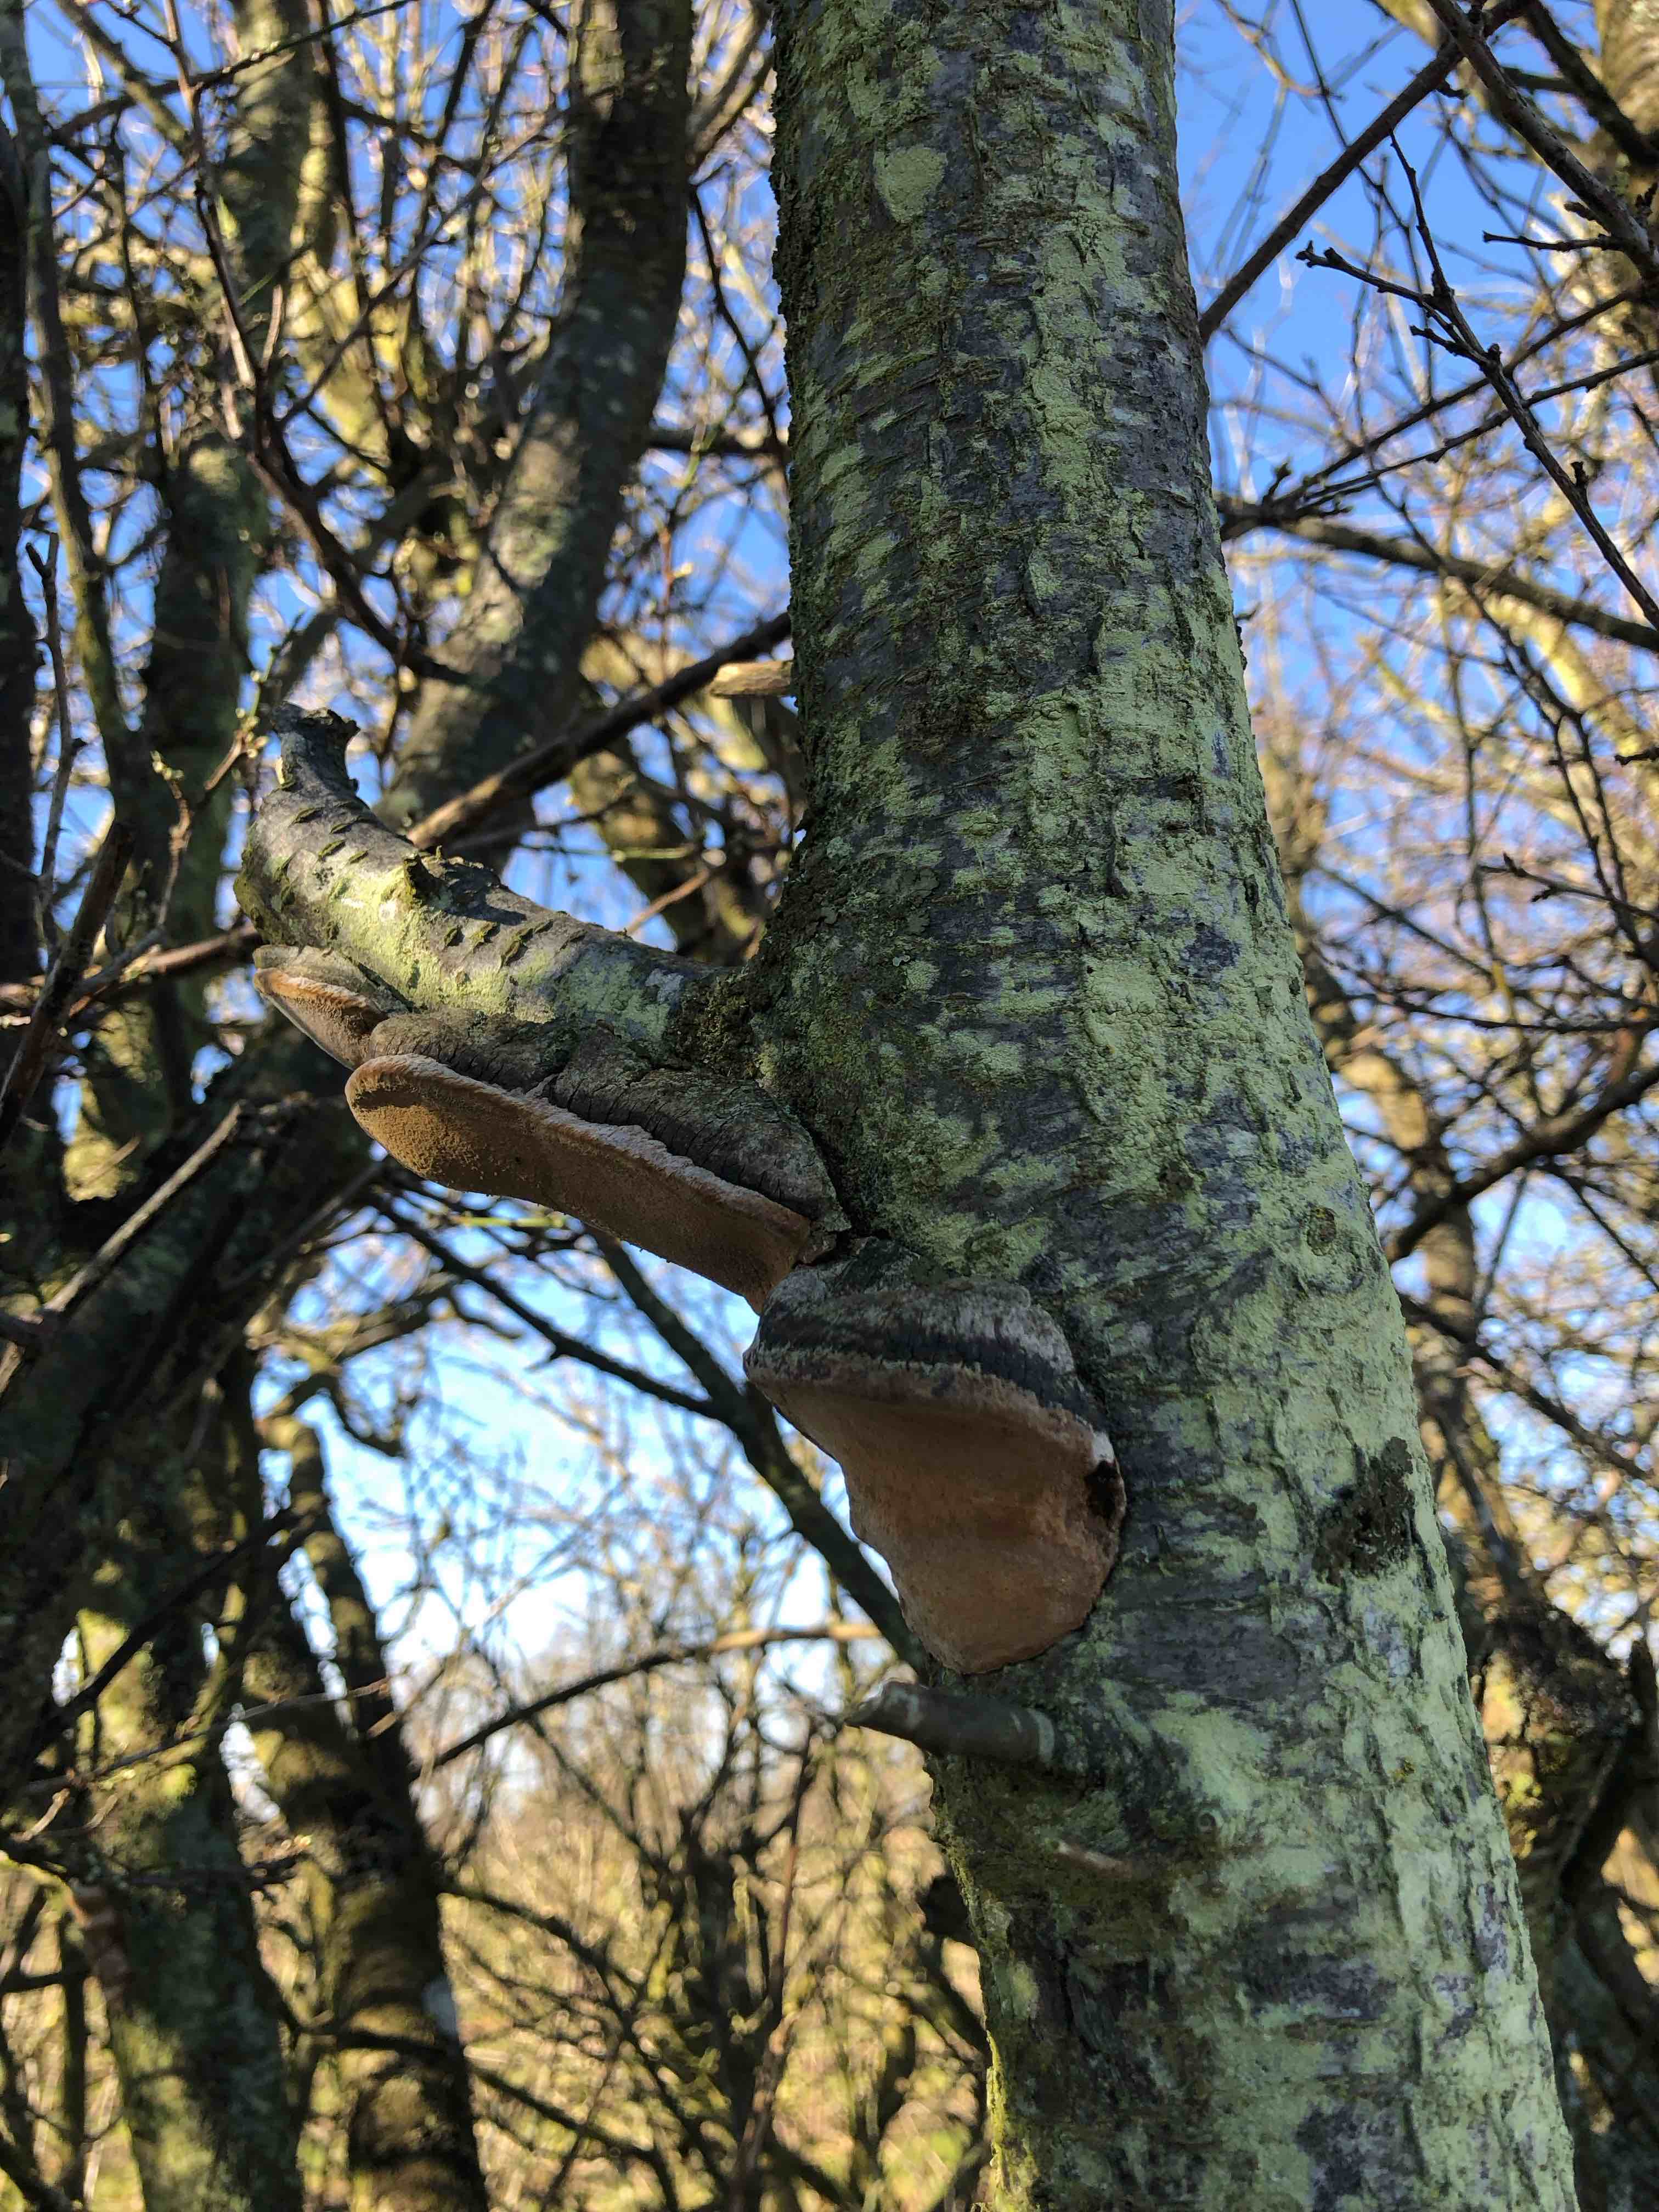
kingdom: Fungi
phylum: Basidiomycota
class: Agaricomycetes
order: Hymenochaetales
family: Hymenochaetaceae
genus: Phellinus
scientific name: Phellinus pomaceus
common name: blomme-ildporesvamp
